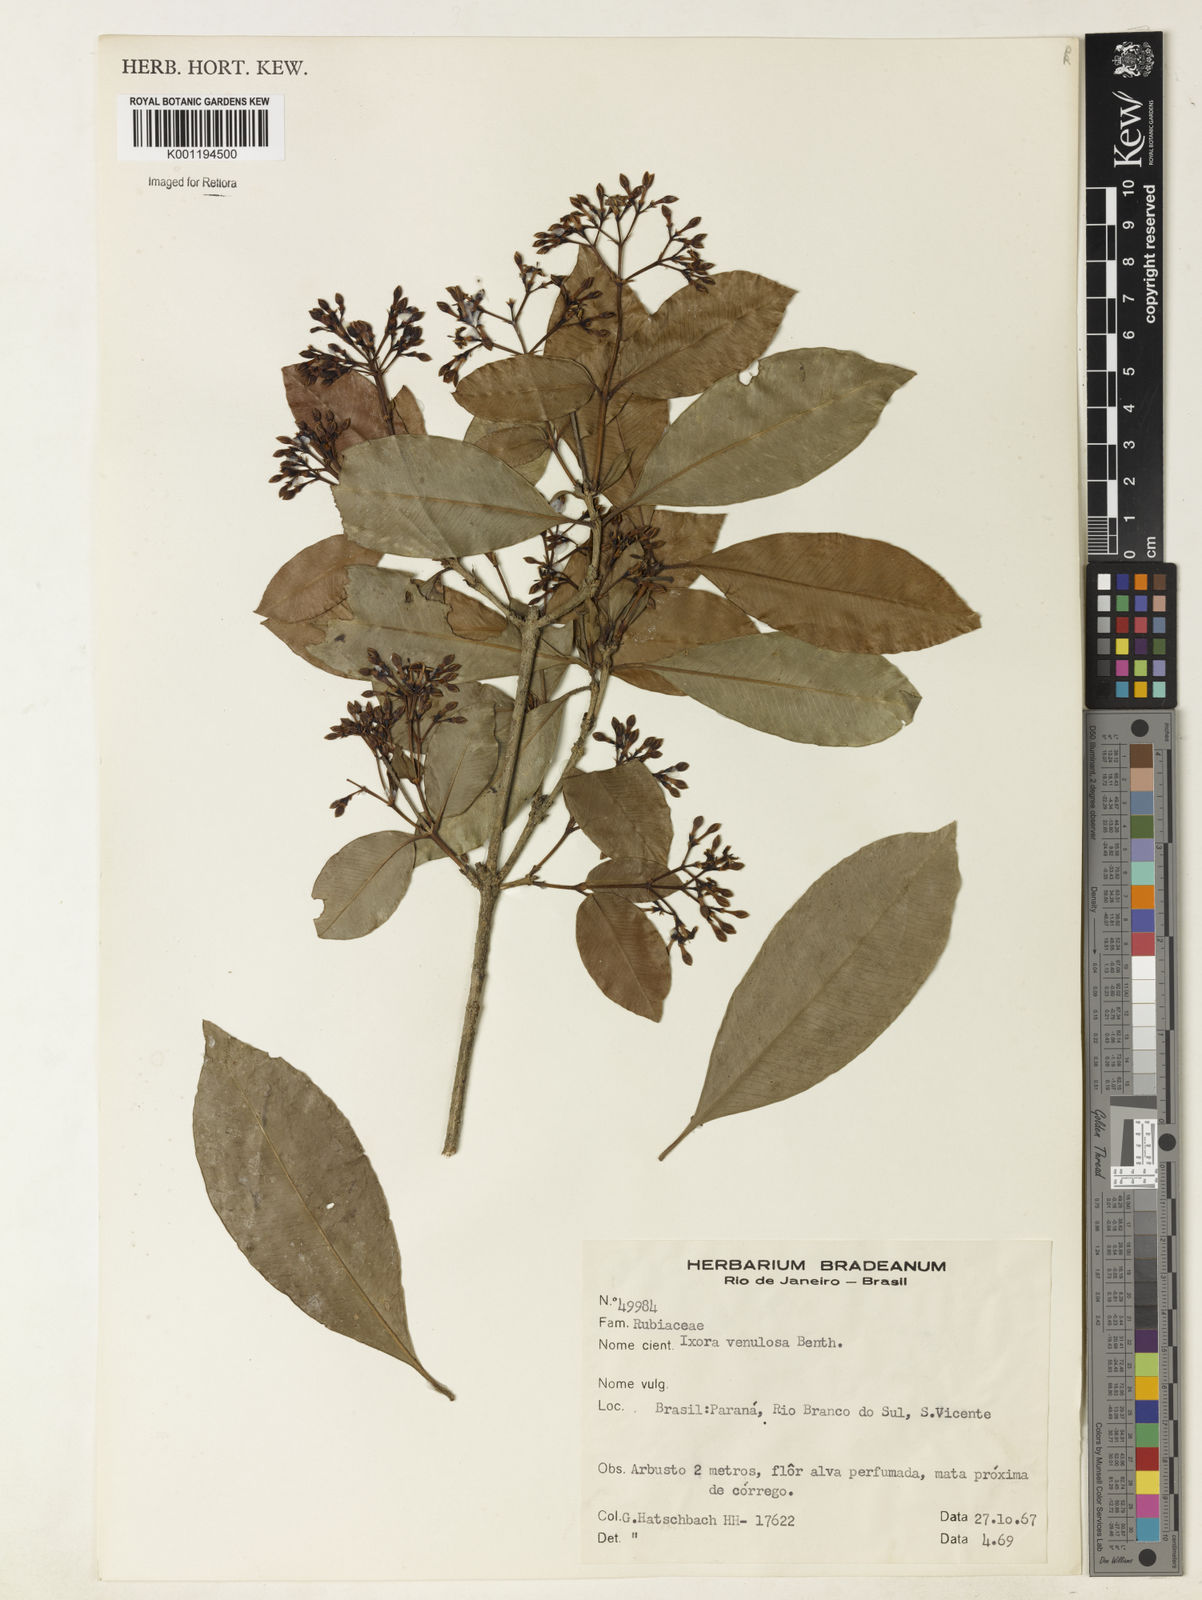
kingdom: Plantae
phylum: Tracheophyta
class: Magnoliopsida
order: Gentianales
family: Rubiaceae
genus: Ixora
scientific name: Ixora venulosa
